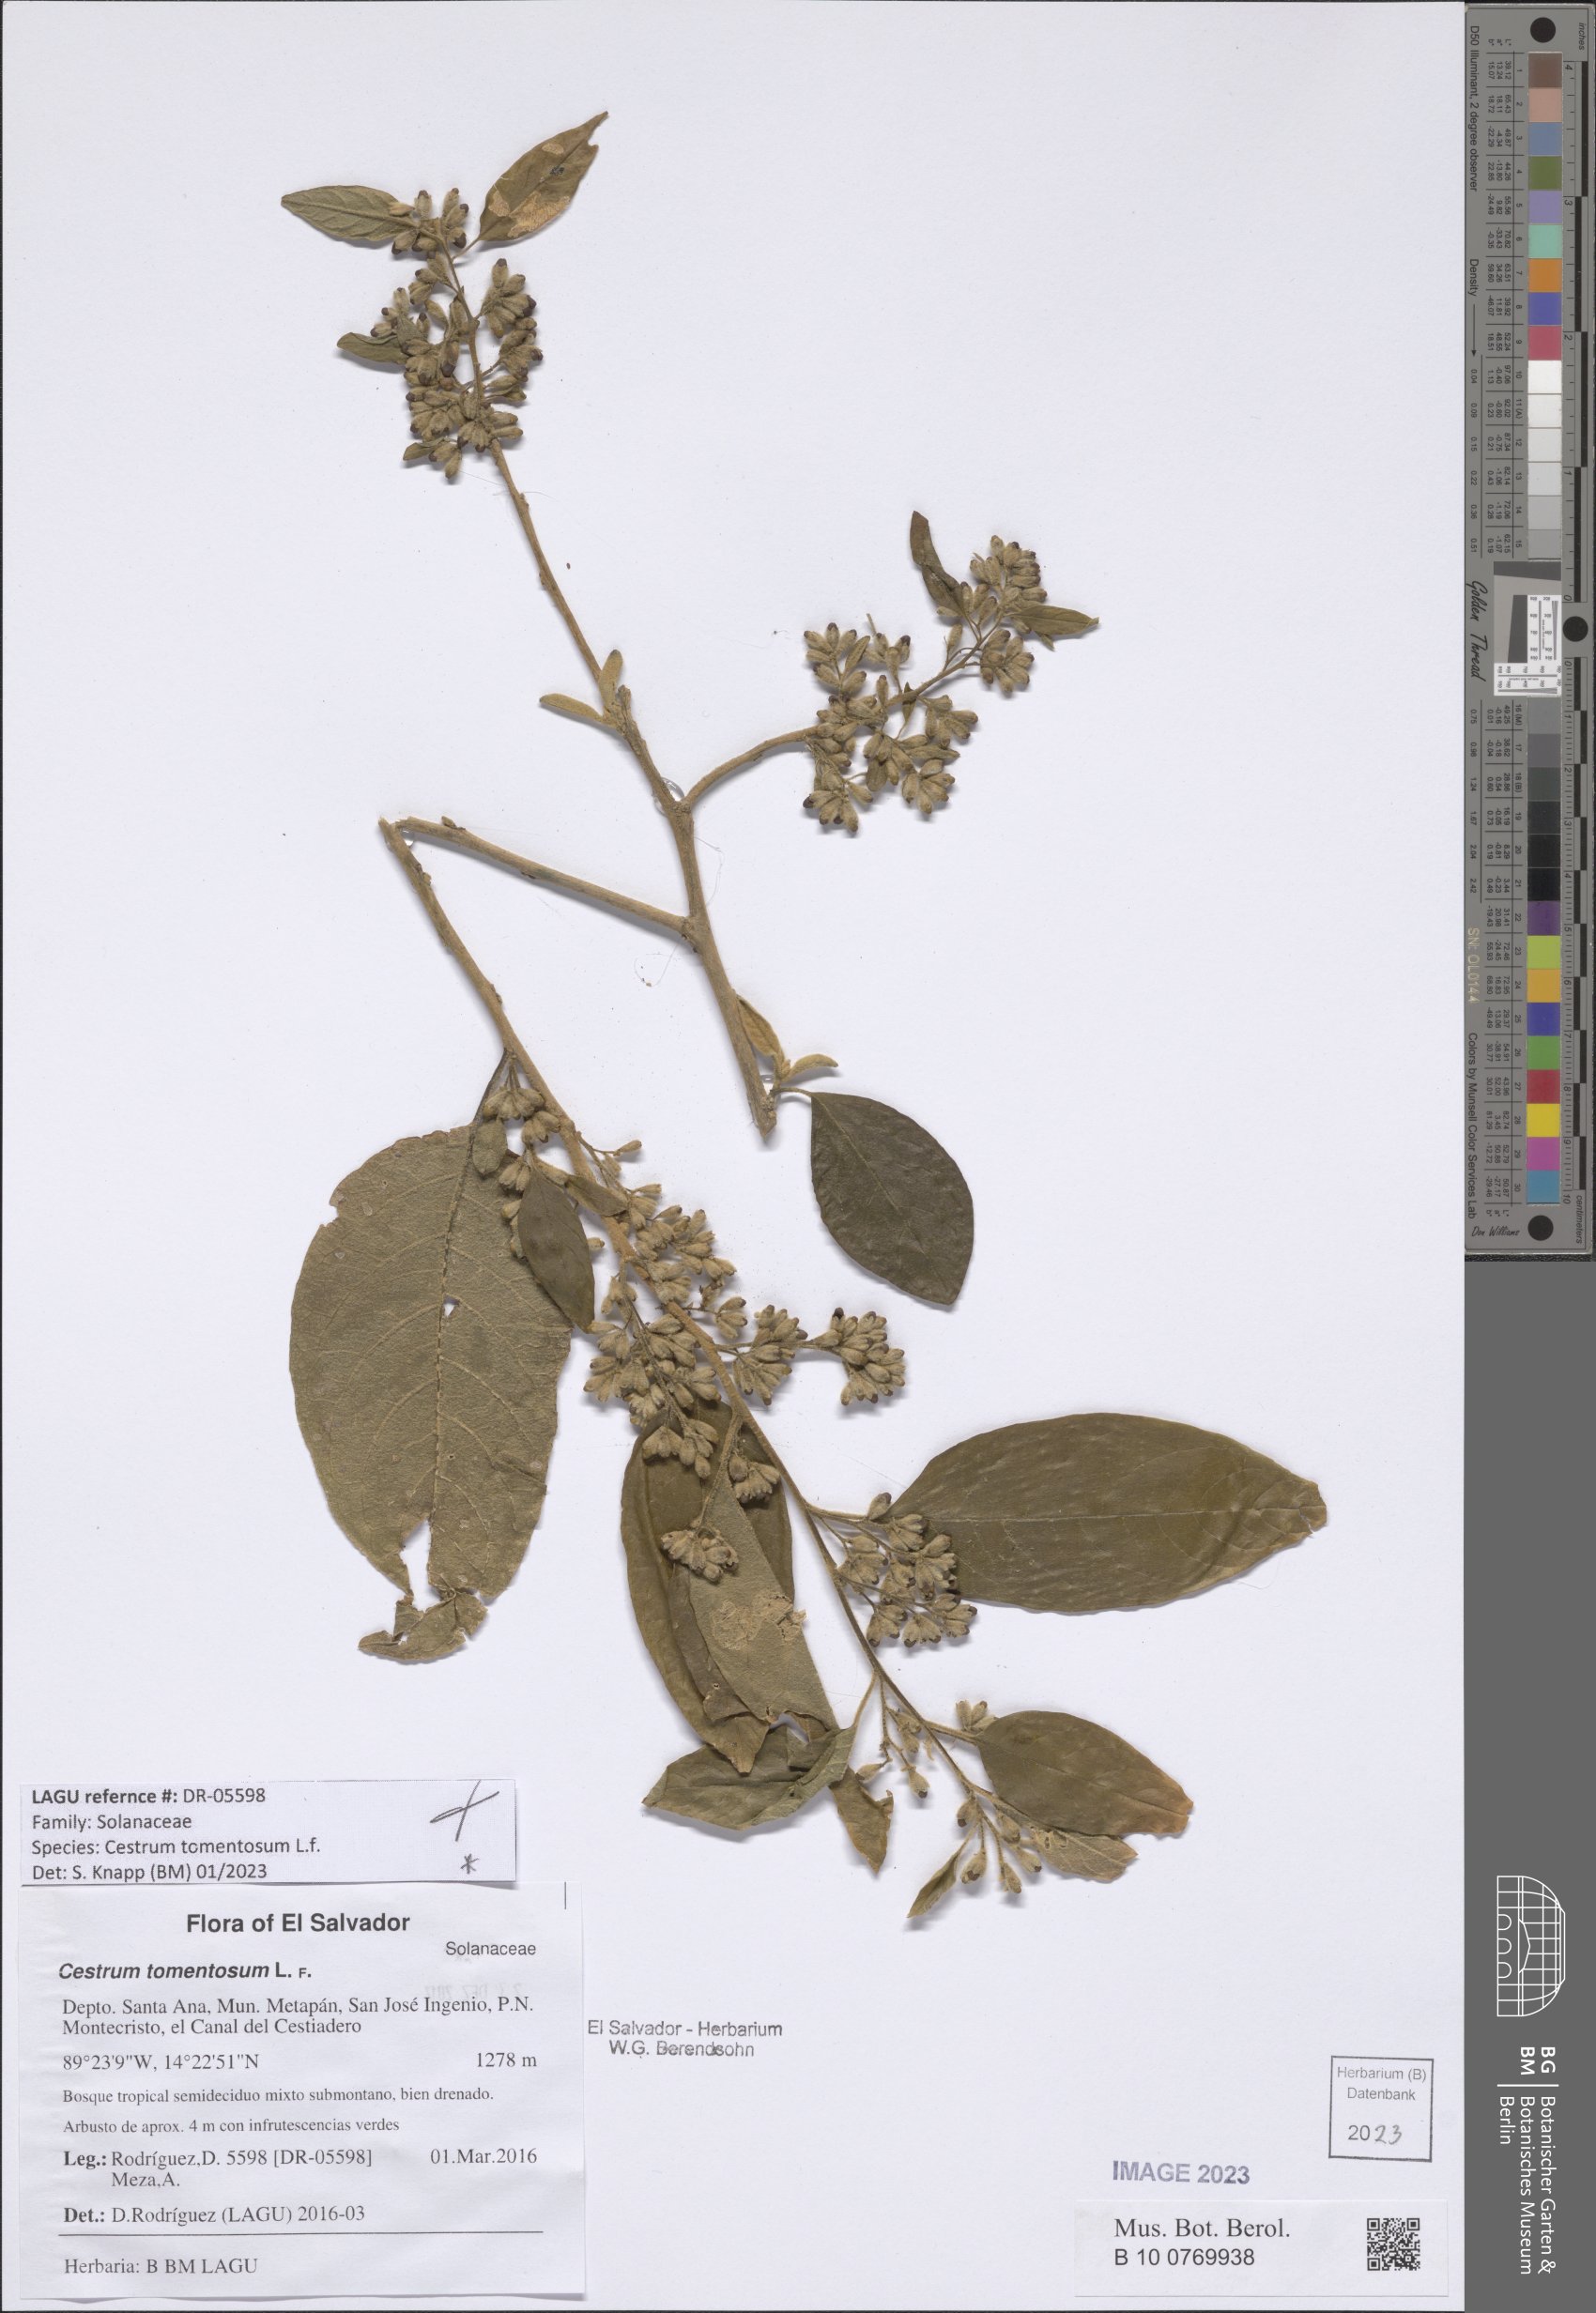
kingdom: Plantae
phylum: Tracheophyta
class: Magnoliopsida
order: Solanales
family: Solanaceae
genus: Cestrum
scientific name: Cestrum tomentosum
